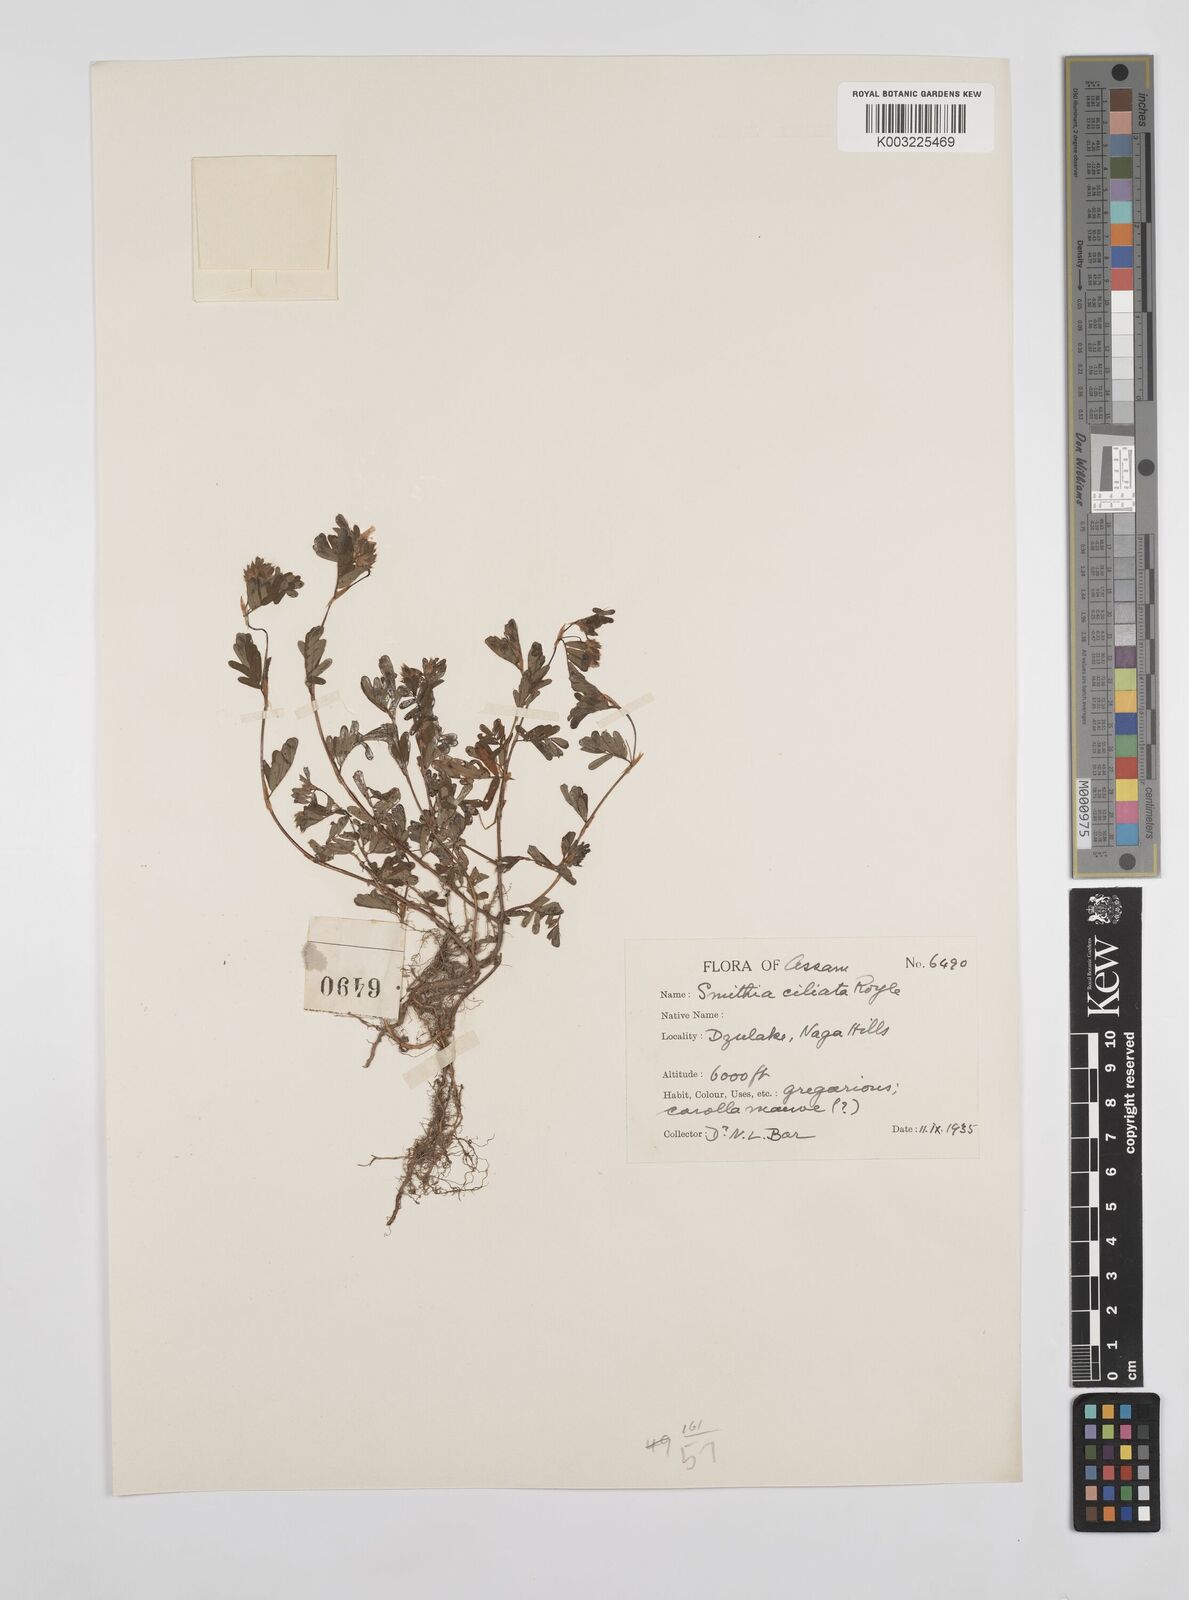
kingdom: Plantae
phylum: Tracheophyta
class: Magnoliopsida
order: Fabales
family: Fabaceae
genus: Smithia
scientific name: Smithia ciliata
